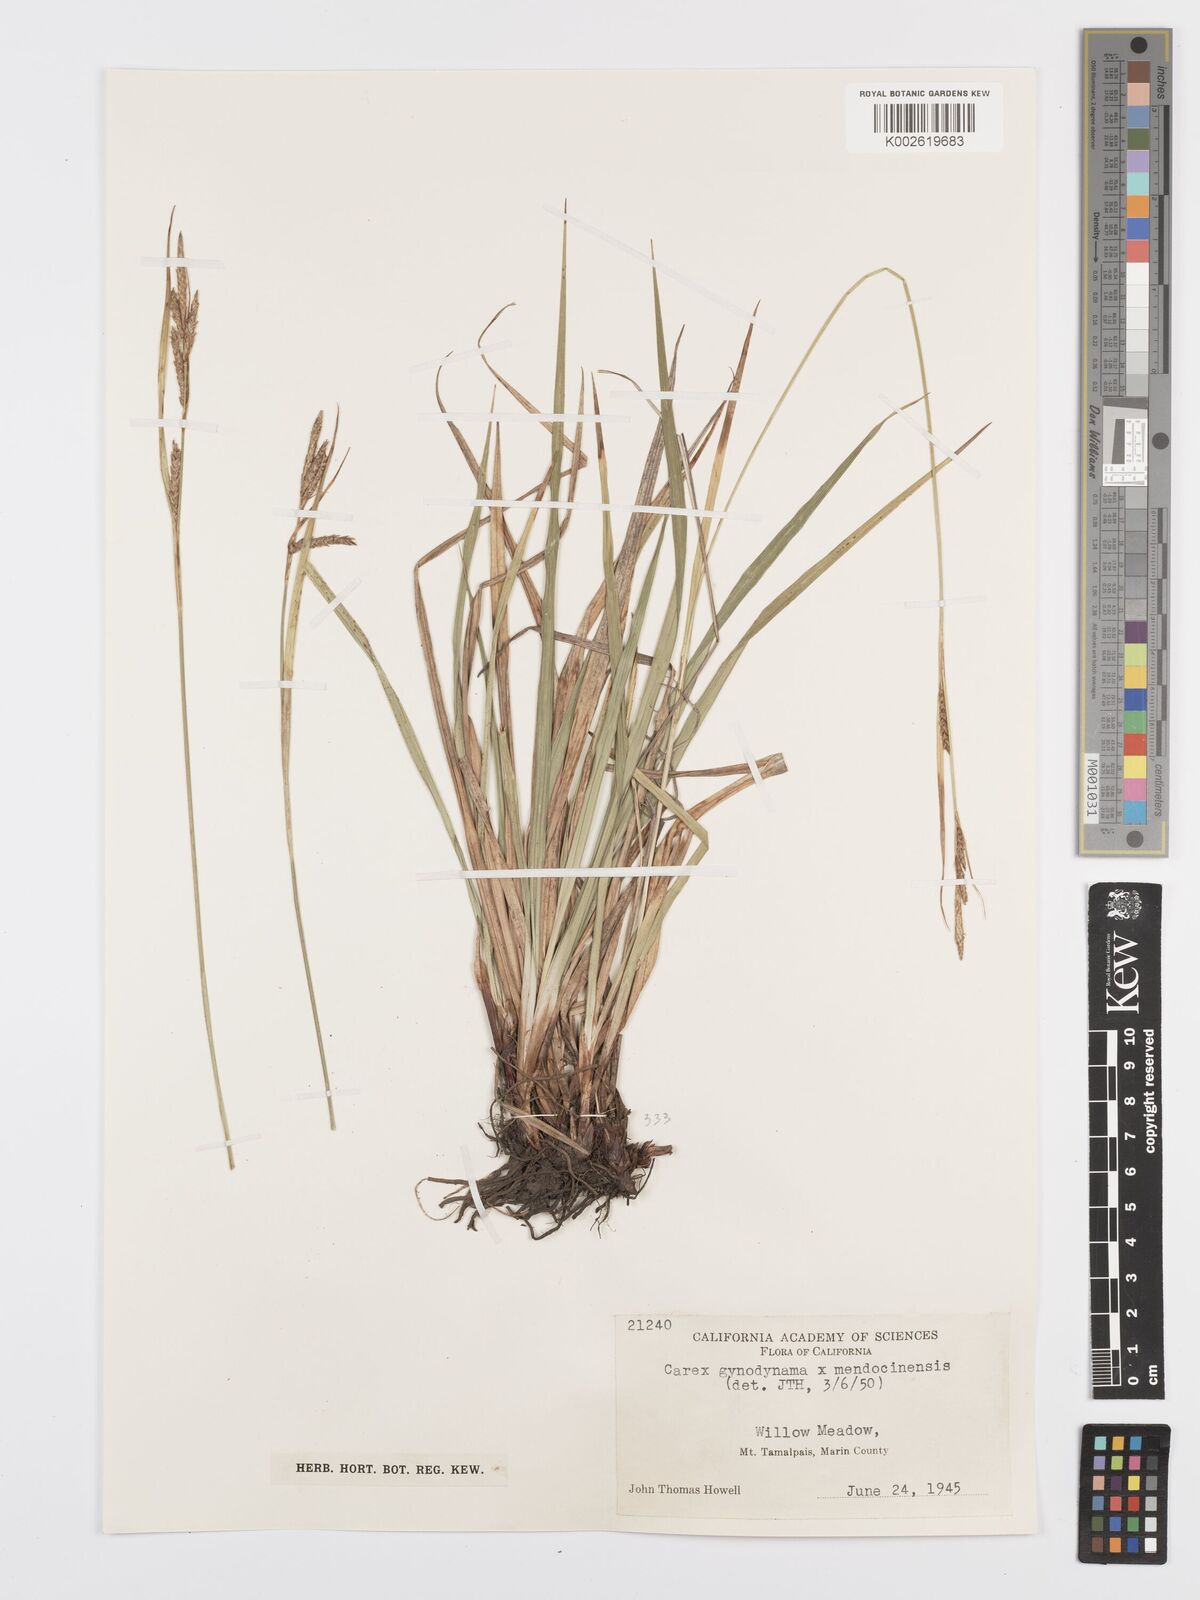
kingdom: Plantae
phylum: Tracheophyta
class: Liliopsida
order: Poales
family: Cyperaceae
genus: Carex
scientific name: Carex
